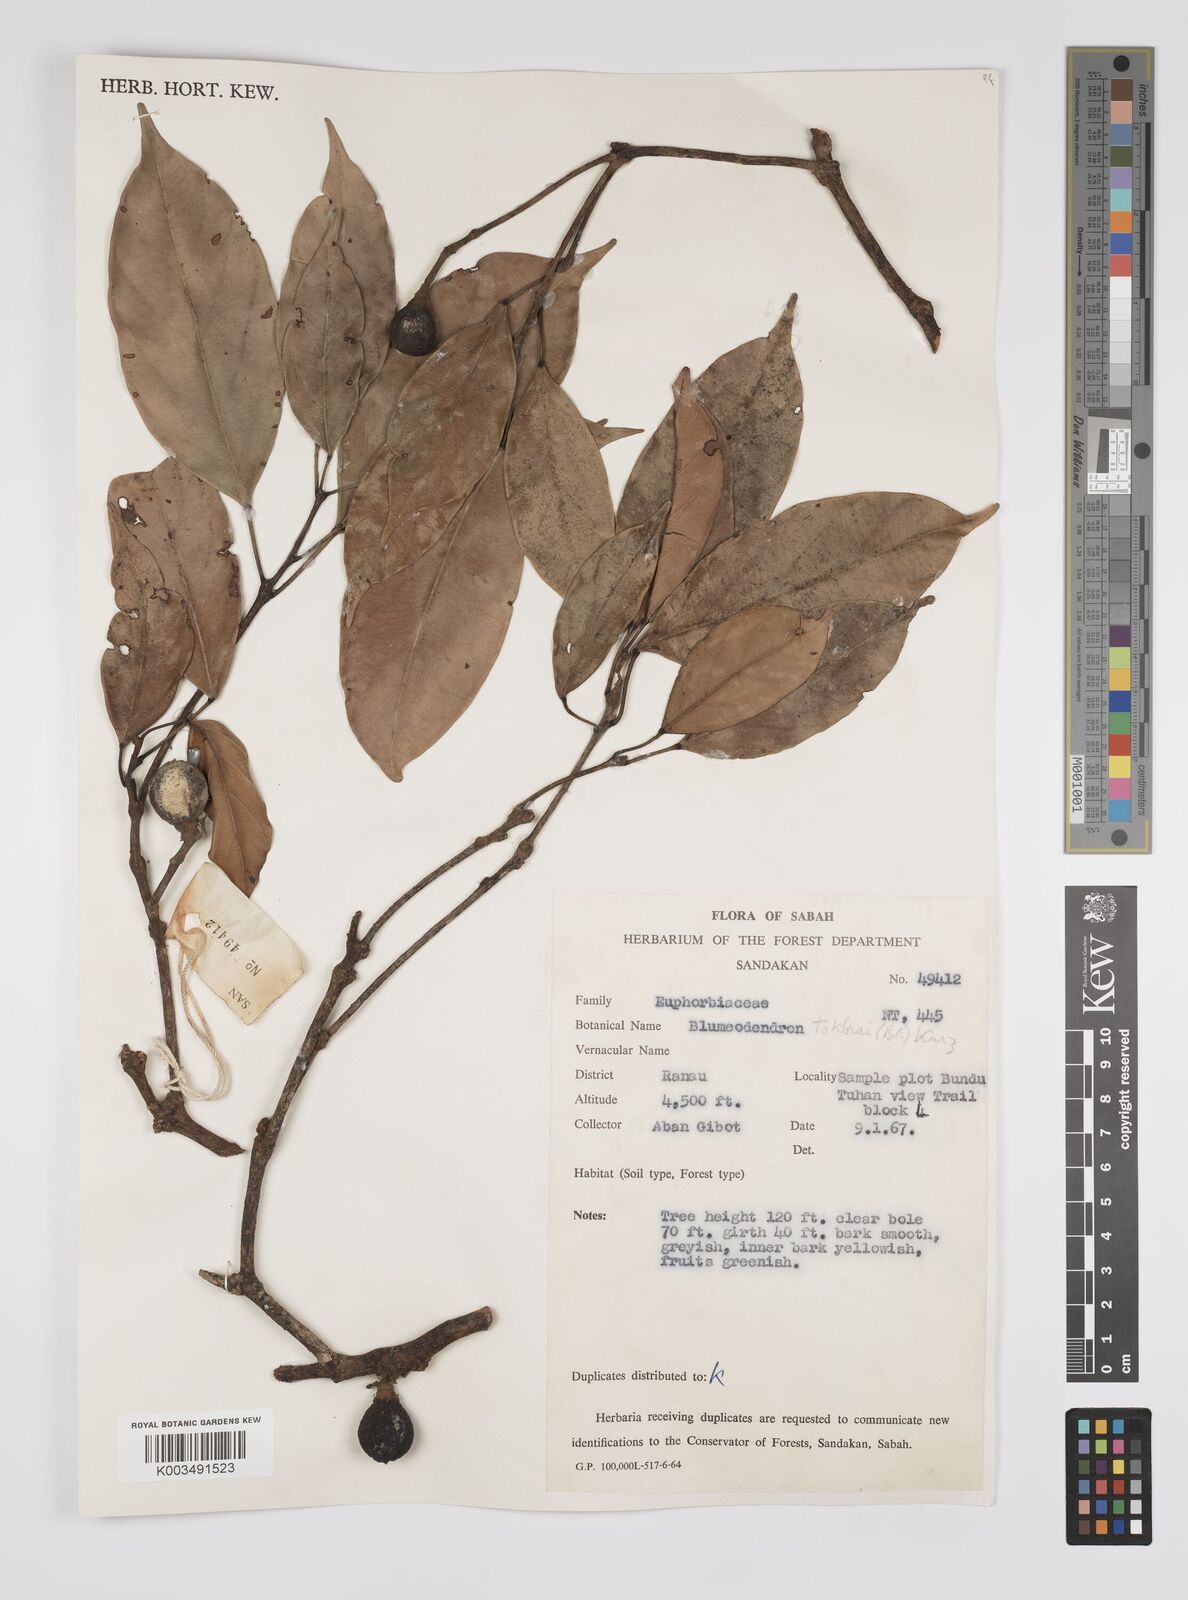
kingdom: Plantae
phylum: Tracheophyta
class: Magnoliopsida
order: Malpighiales
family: Euphorbiaceae
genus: Blumeodendron
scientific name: Blumeodendron tokbrai
